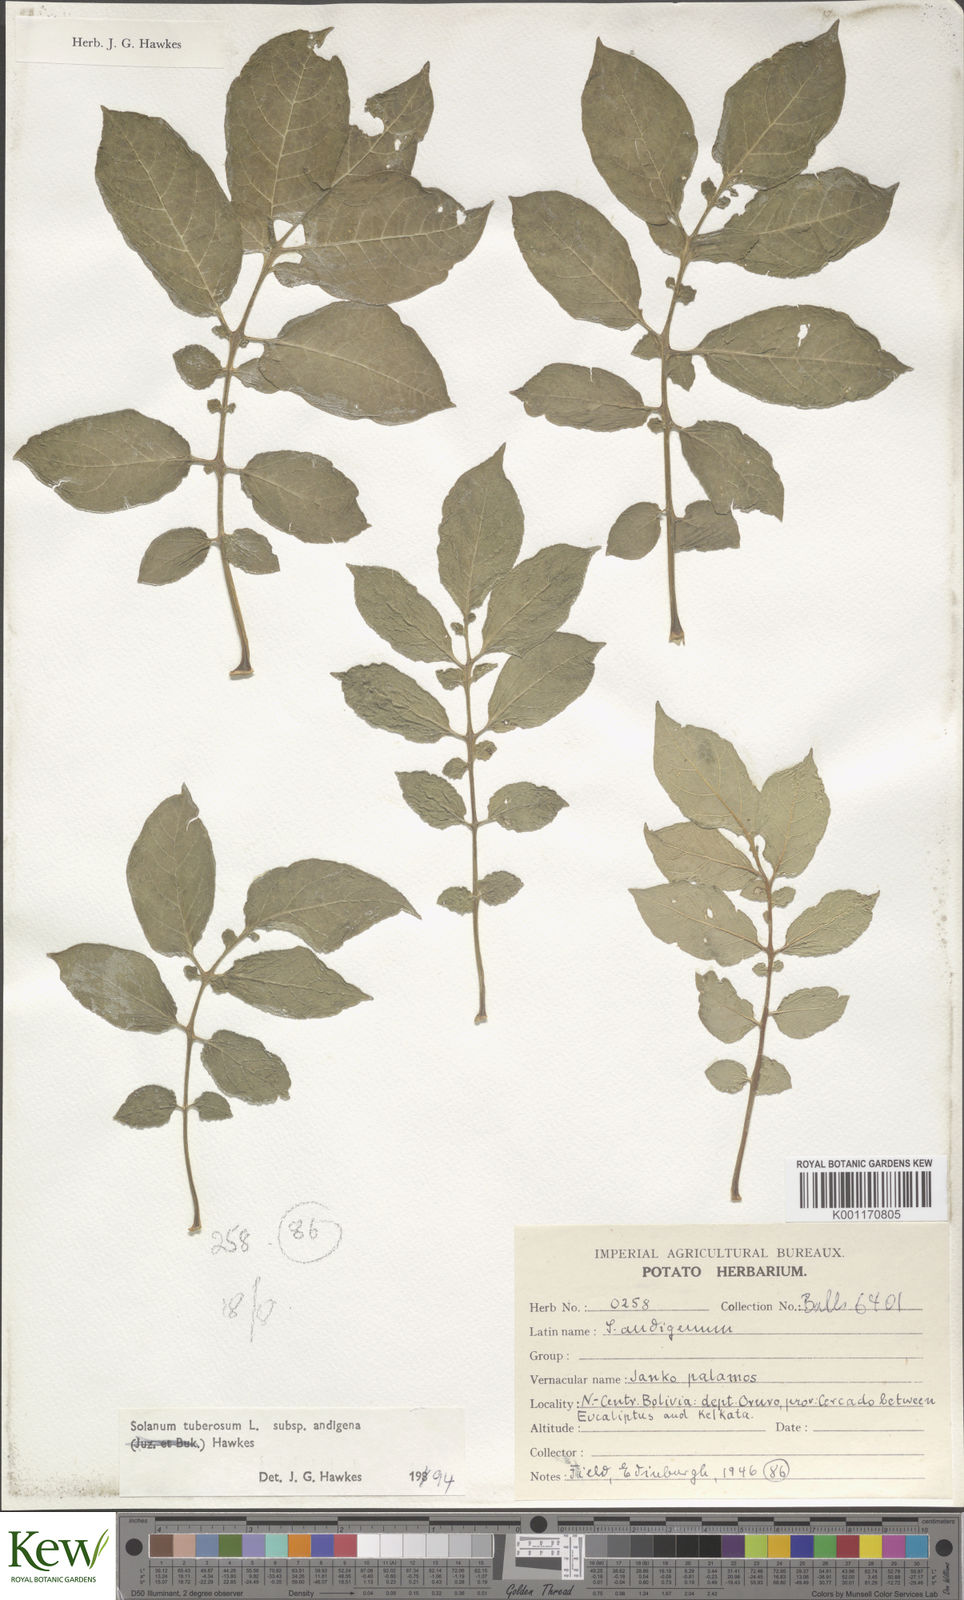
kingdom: Plantae
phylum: Tracheophyta
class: Magnoliopsida
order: Solanales
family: Solanaceae
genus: Solanum
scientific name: Solanum tuberosum
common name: Potato
